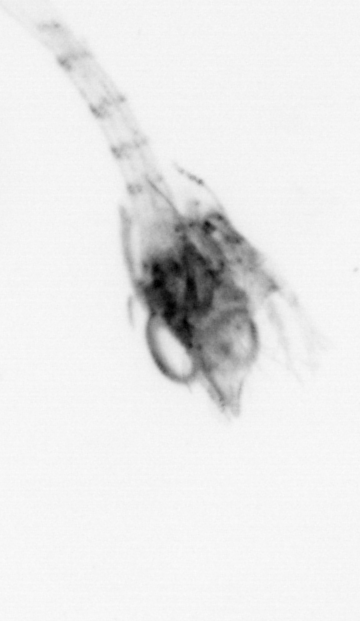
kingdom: Animalia
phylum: Arthropoda
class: Malacostraca
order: Decapoda
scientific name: Decapoda
